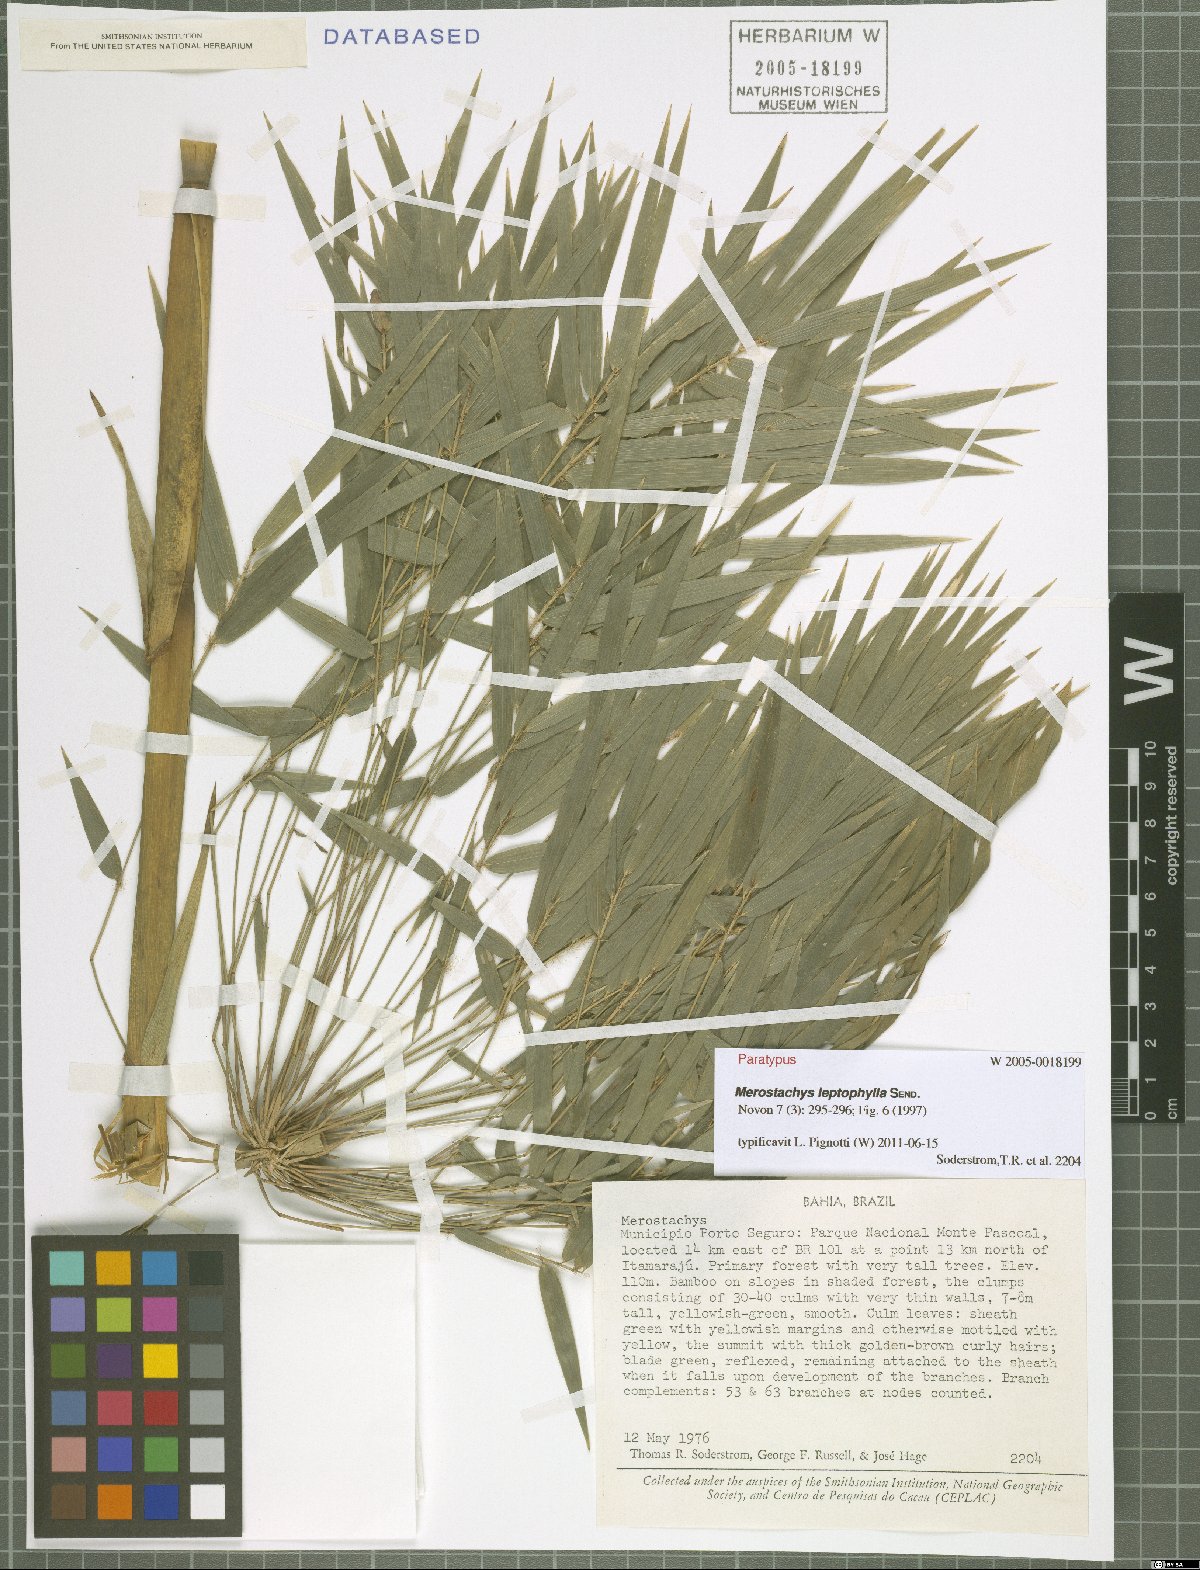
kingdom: Plantae
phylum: Tracheophyta
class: Liliopsida
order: Poales
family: Poaceae
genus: Merostachys
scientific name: Merostachys leptophylla
